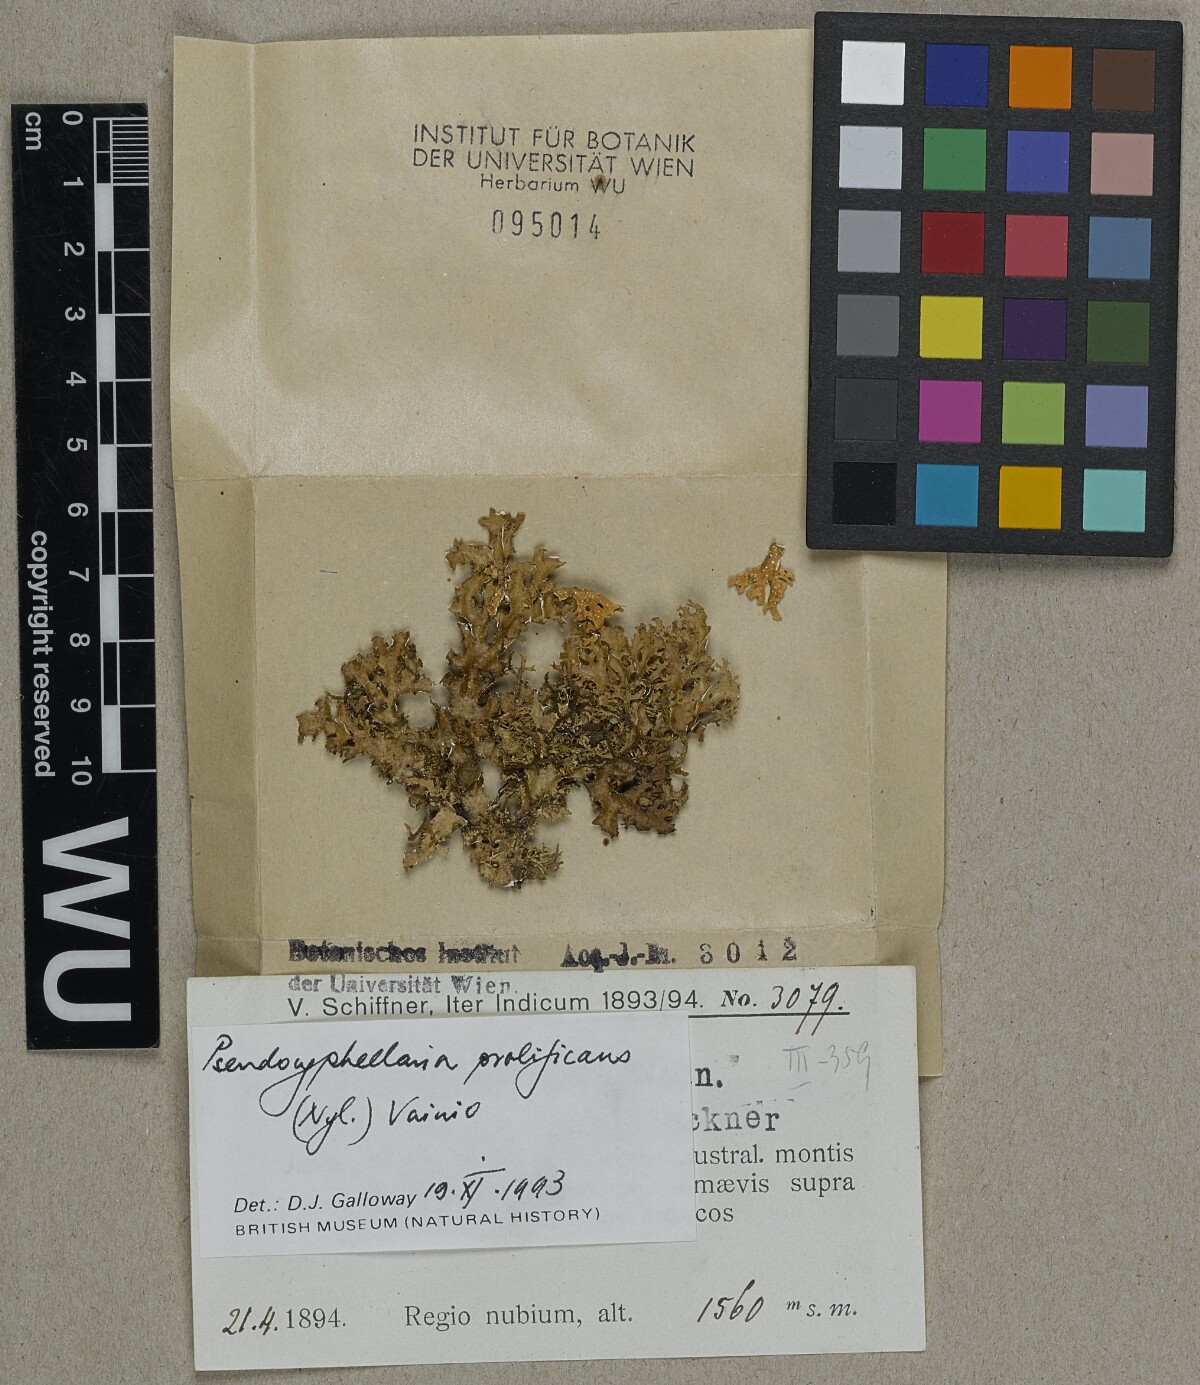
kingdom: Fungi
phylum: Ascomycota
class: Lecanoromycetes
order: Peltigerales
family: Lobariaceae
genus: Pseudocyphellaria
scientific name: Pseudocyphellaria prolificans
